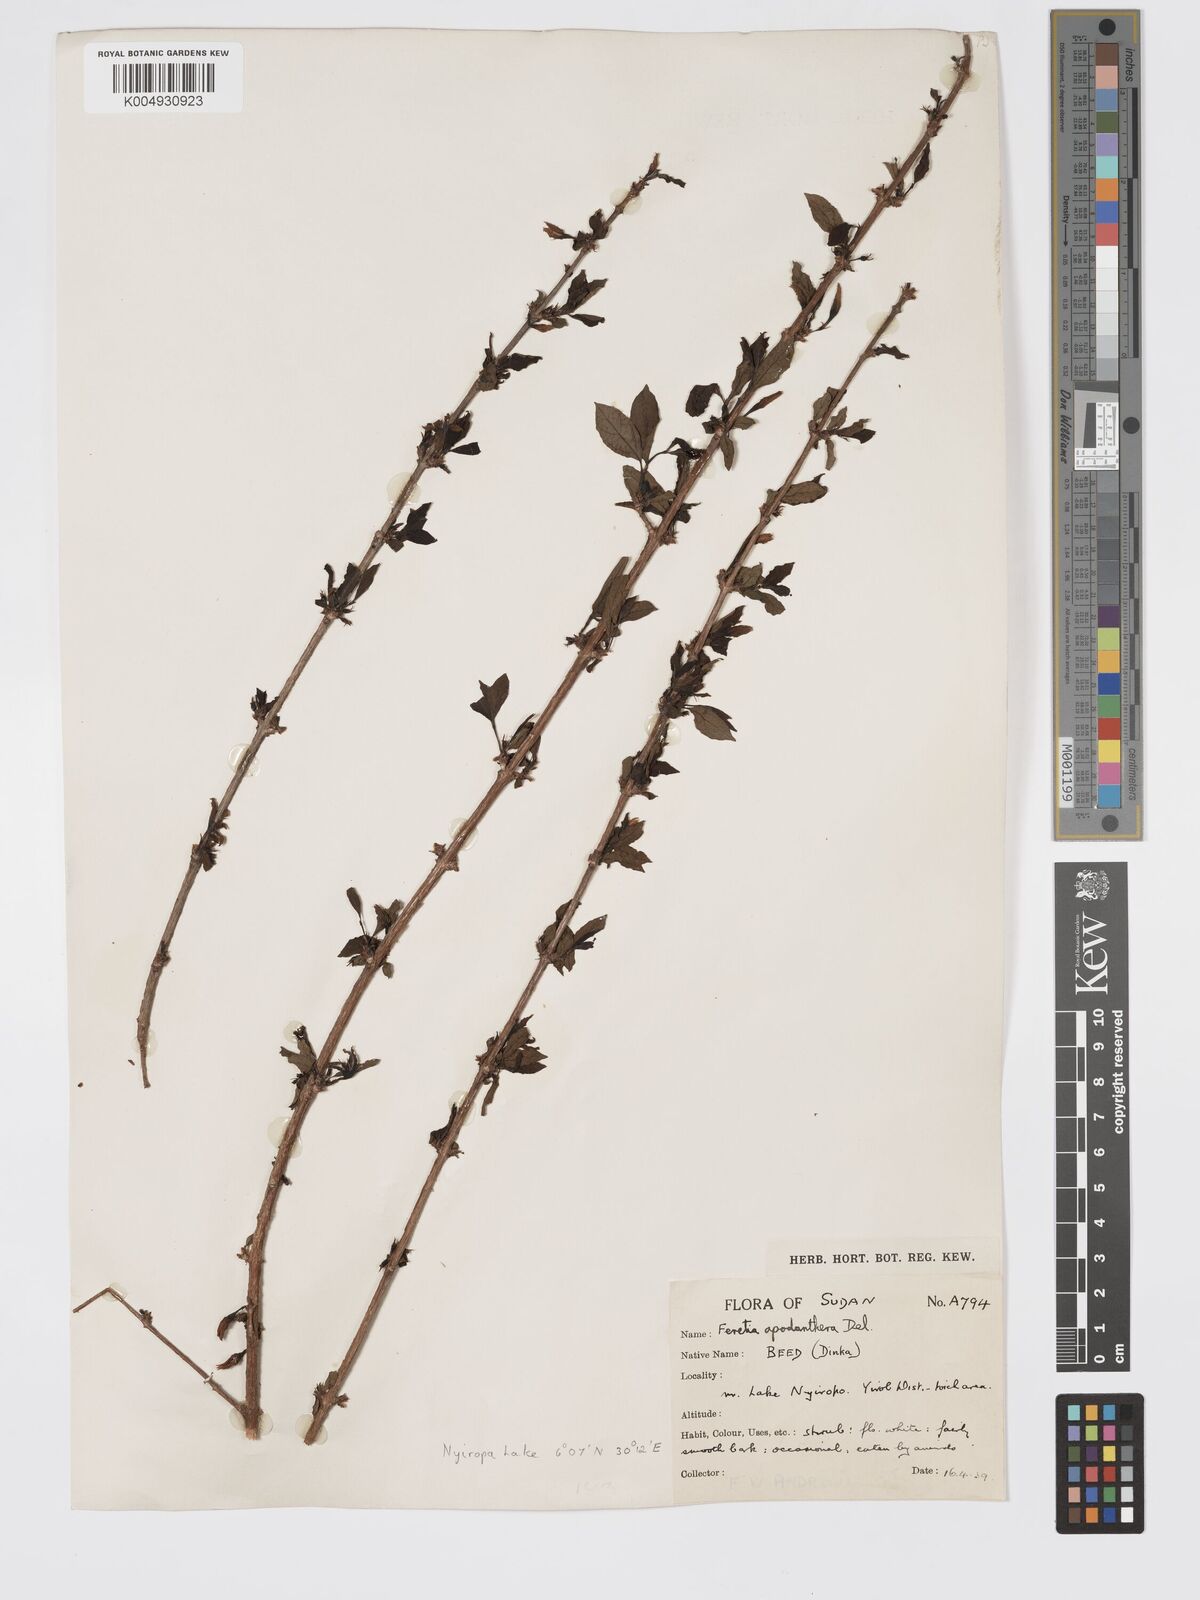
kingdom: Plantae
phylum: Tracheophyta
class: Magnoliopsida
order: Gentianales
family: Rubiaceae
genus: Feretia
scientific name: Feretia apodanthera
